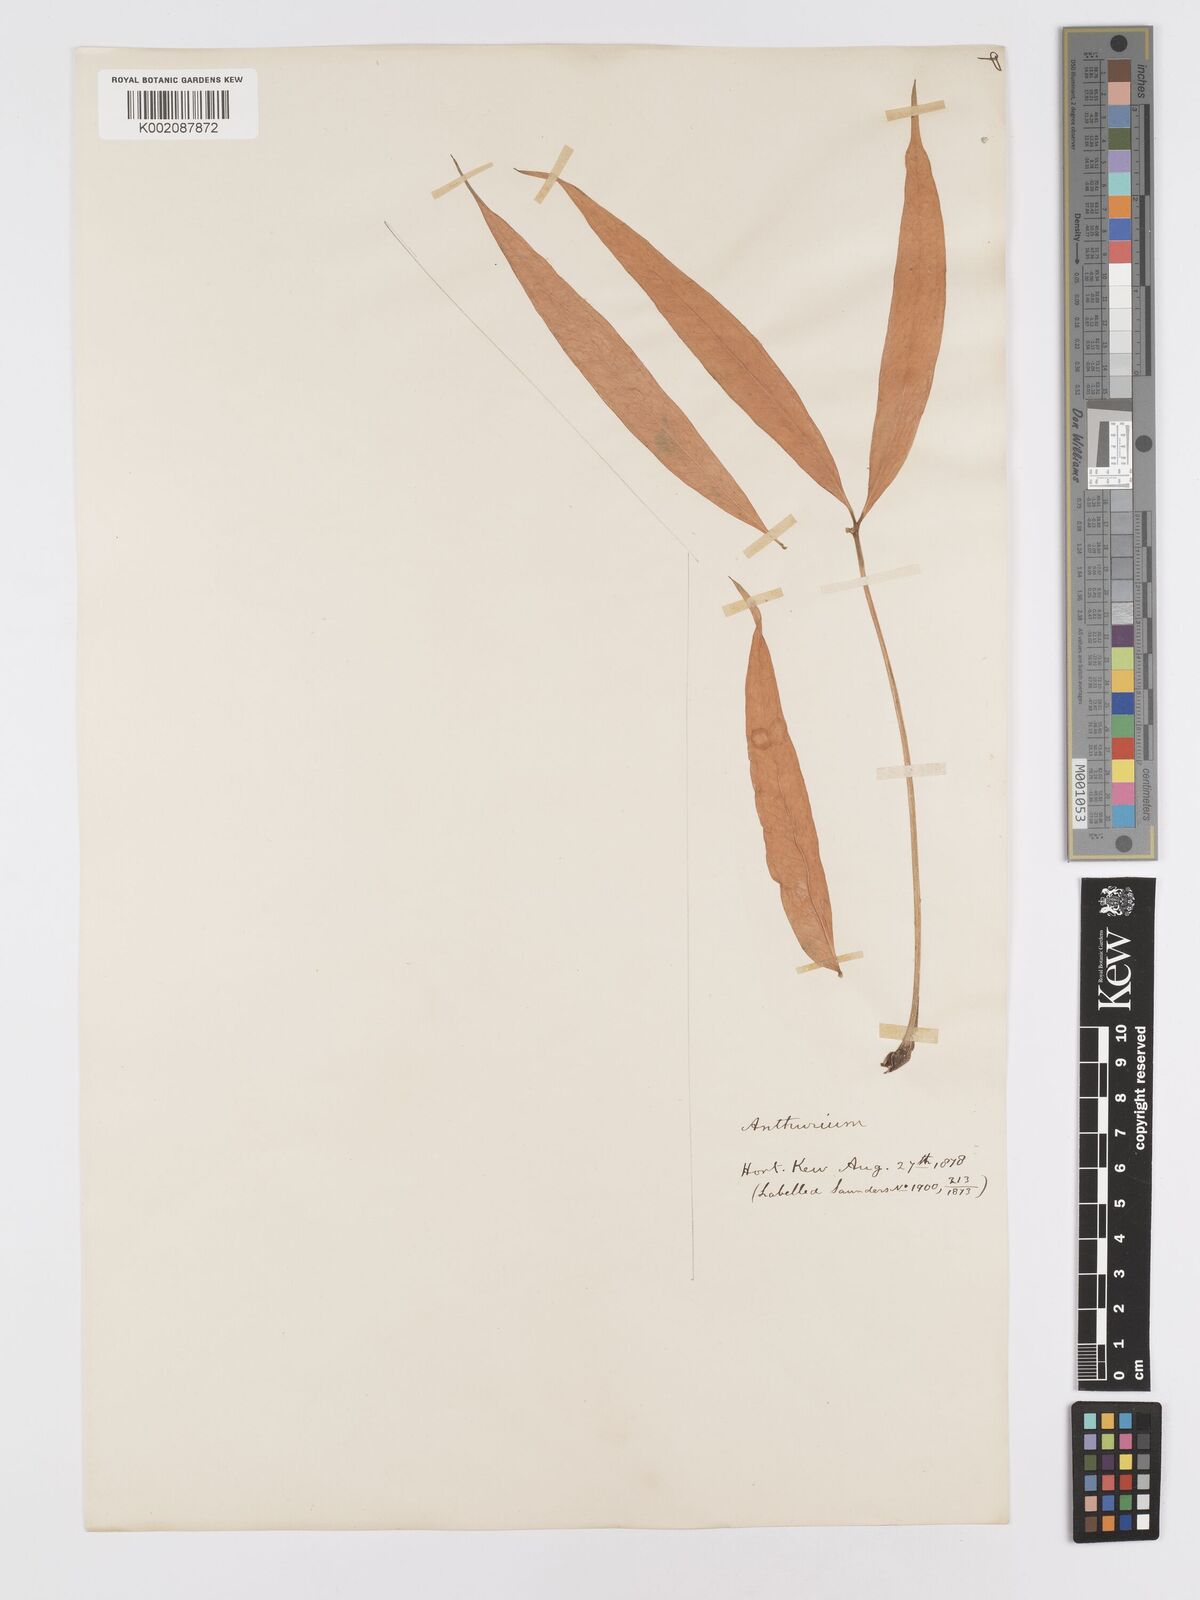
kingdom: Plantae
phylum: Tracheophyta
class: Liliopsida
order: Alismatales
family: Araceae
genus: Anthurium
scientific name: Anthurium pentaphyllum
